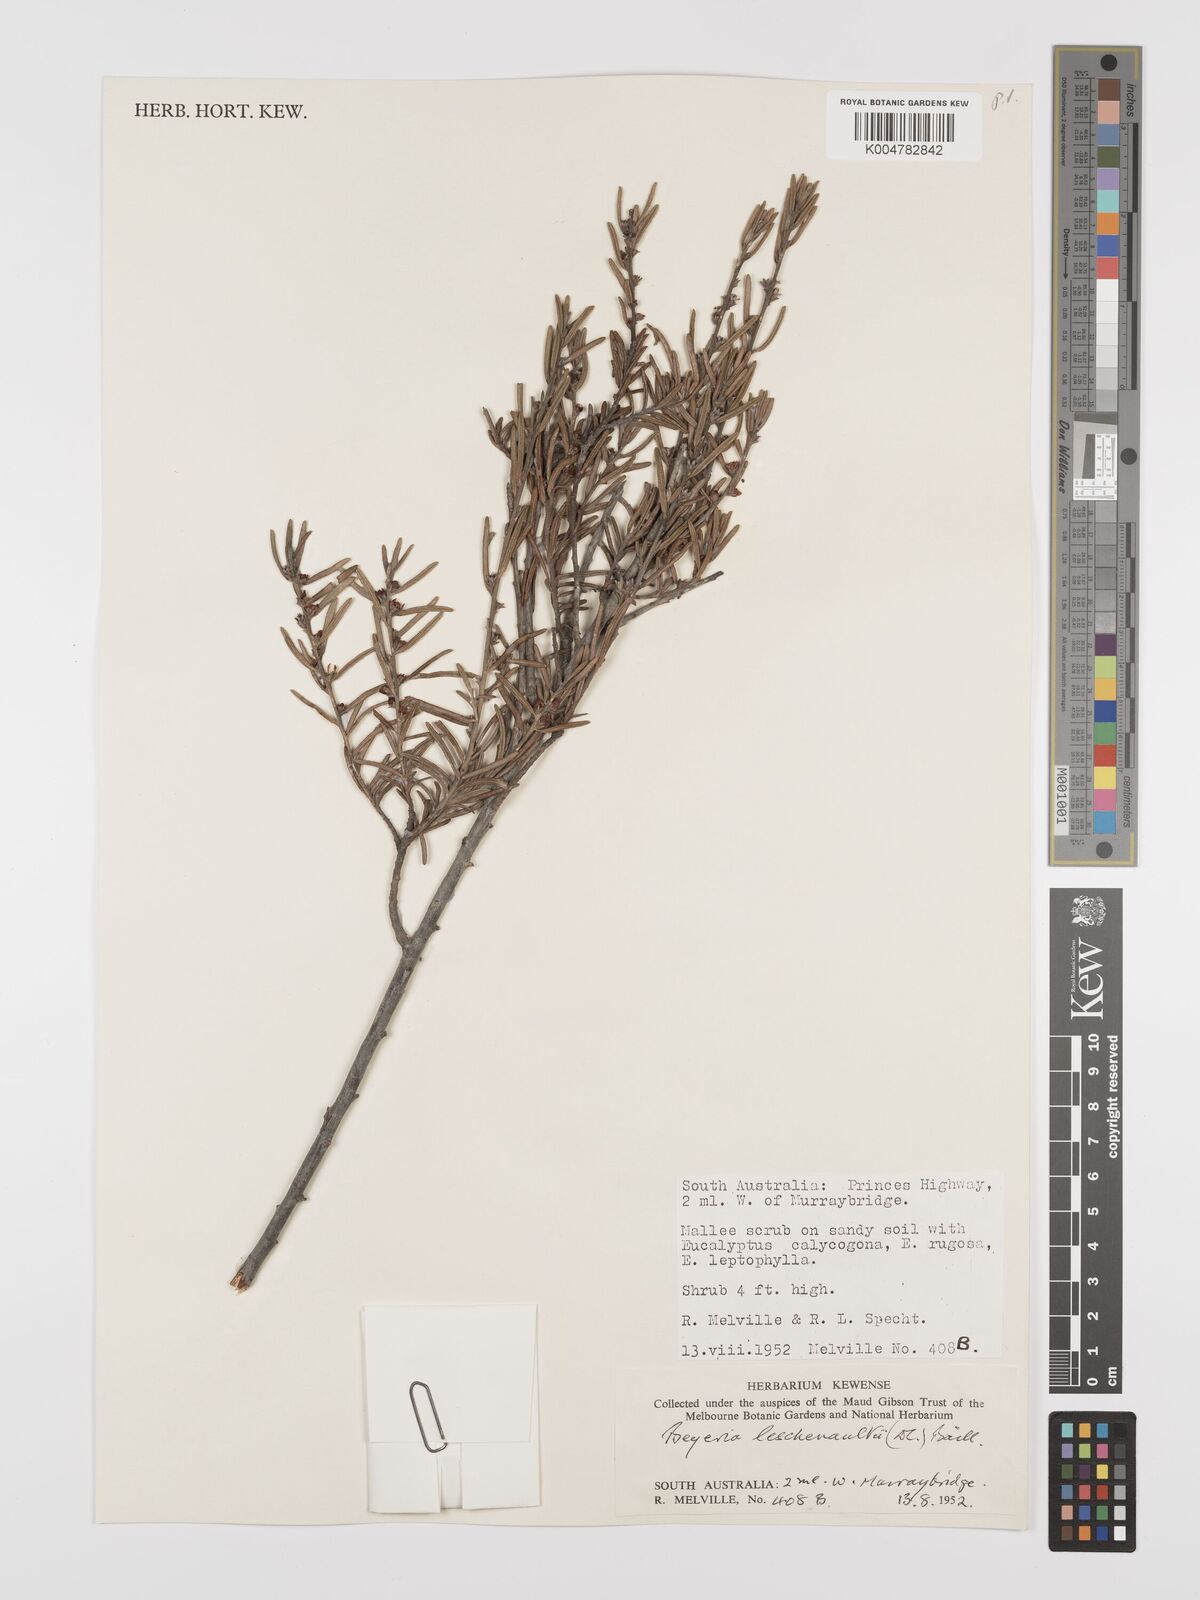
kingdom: Plantae
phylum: Tracheophyta
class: Magnoliopsida
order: Malpighiales
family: Euphorbiaceae
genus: Beyeria
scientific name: Beyeria lechenaultii
